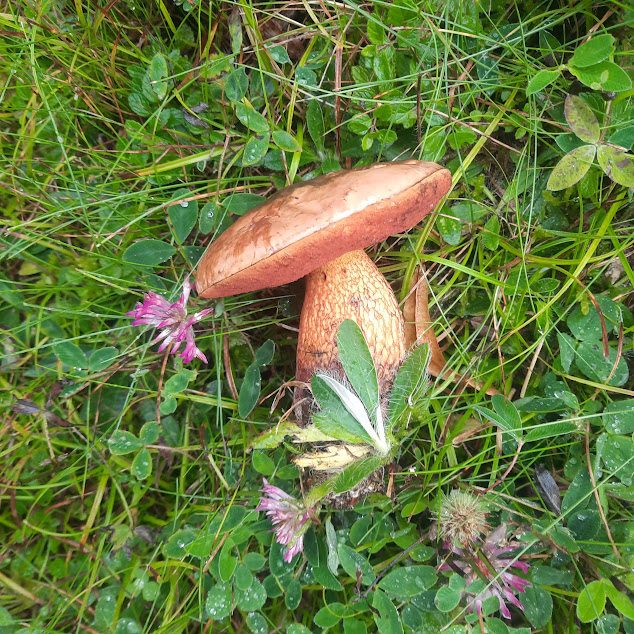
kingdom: Fungi
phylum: Basidiomycota
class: Agaricomycetes
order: Boletales
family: Boletaceae
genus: Suillellus
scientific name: Suillellus luridus
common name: netstokket indigorørhat
